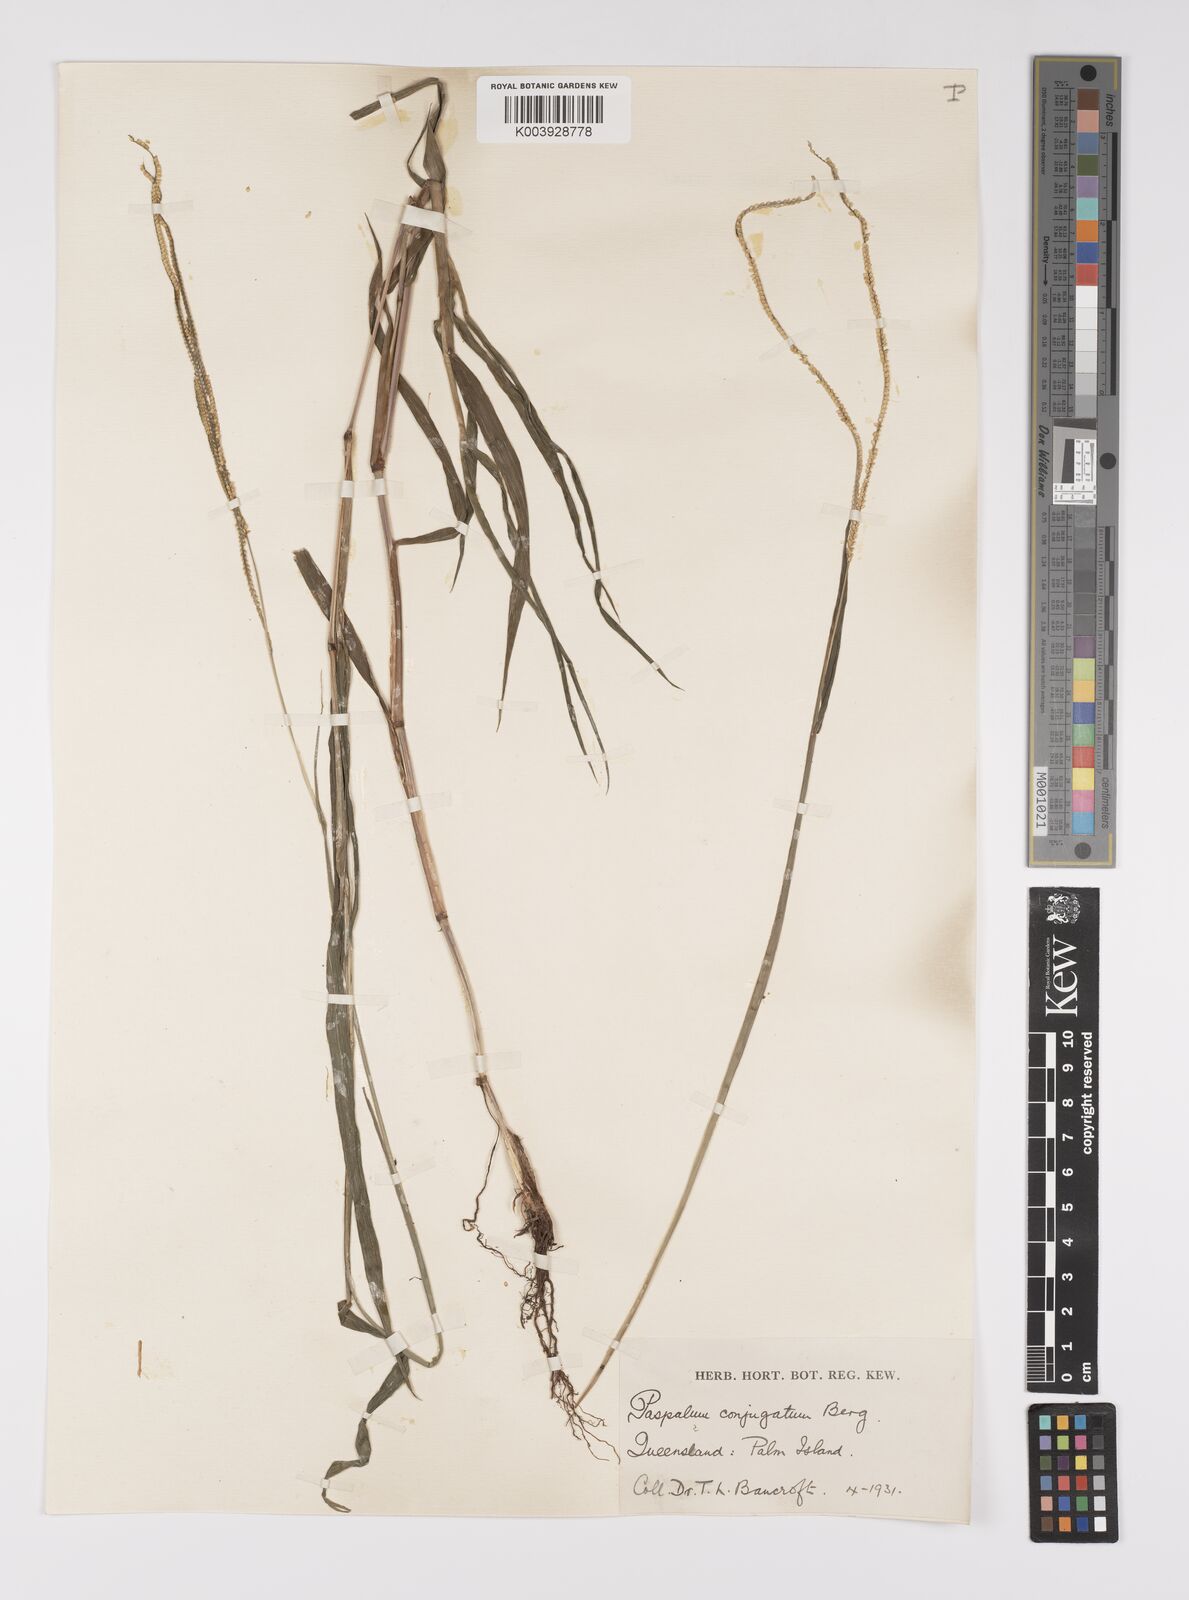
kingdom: Plantae
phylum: Tracheophyta
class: Liliopsida
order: Poales
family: Poaceae
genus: Paspalum
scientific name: Paspalum conjugatum
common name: Hilograss
